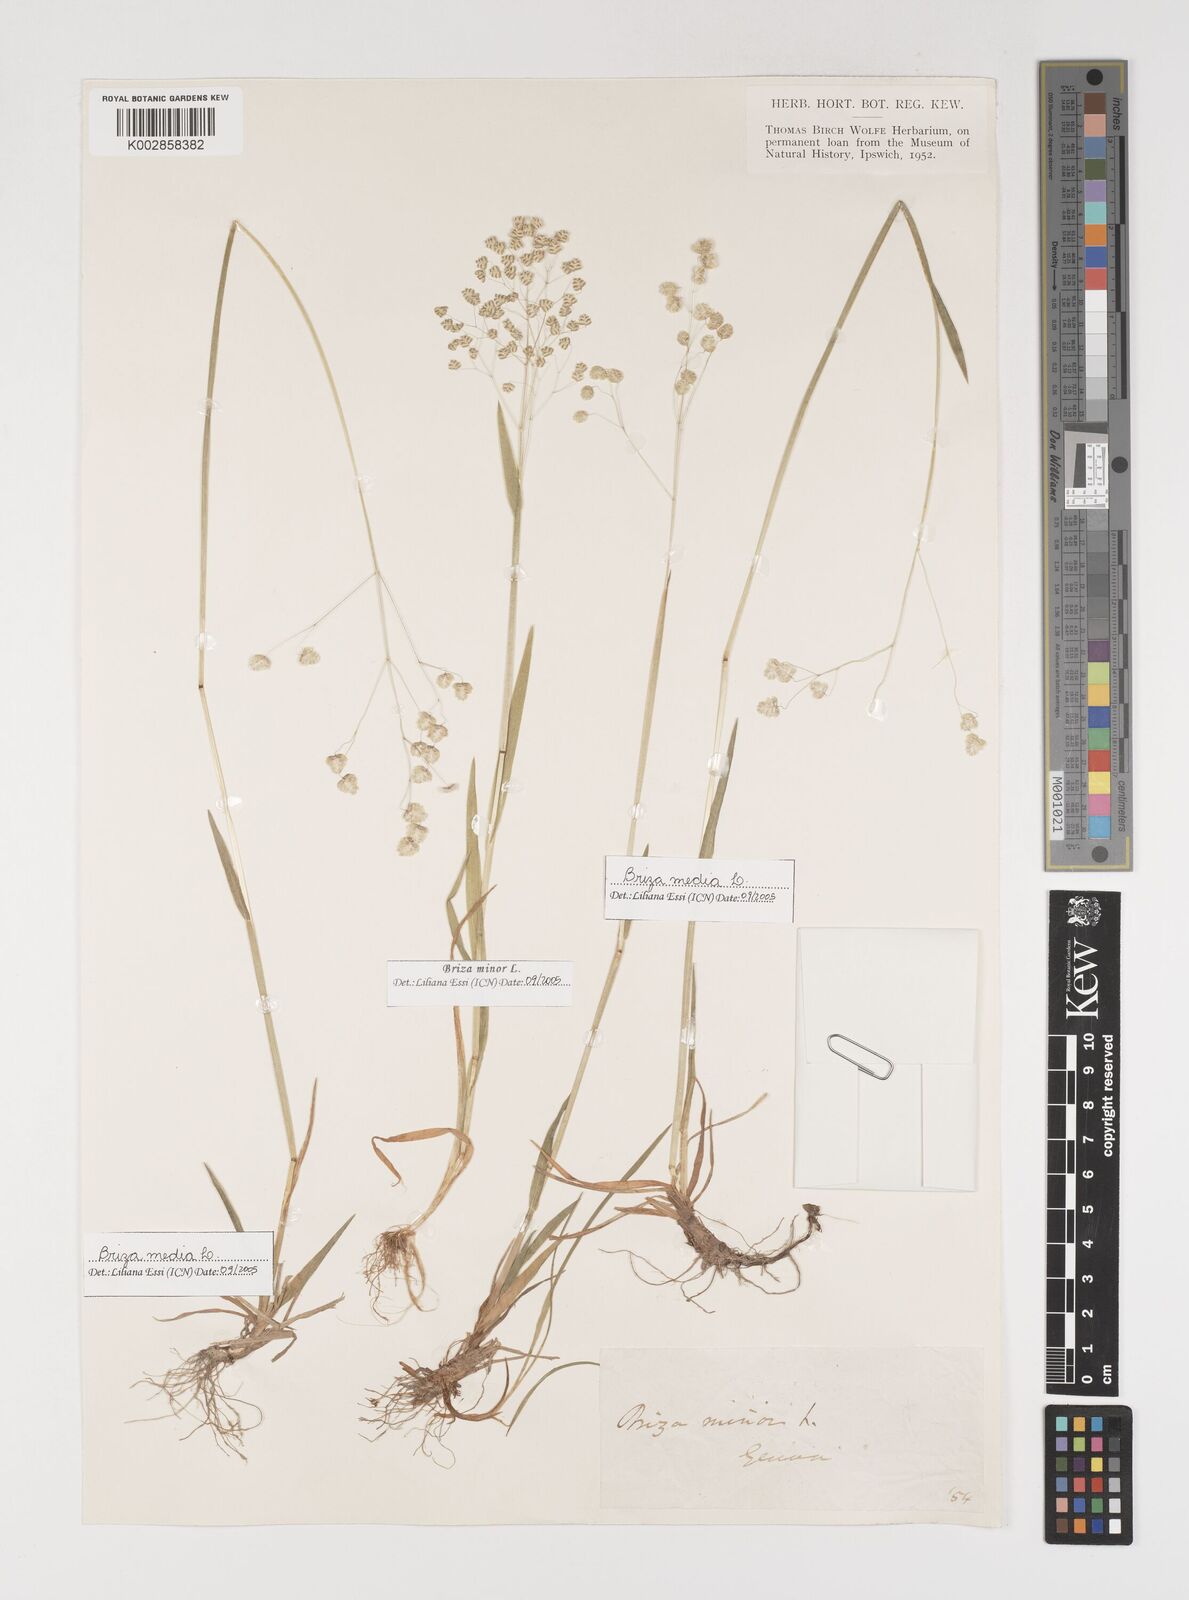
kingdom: Plantae
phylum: Tracheophyta
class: Liliopsida
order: Poales
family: Poaceae
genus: Briza
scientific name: Briza media
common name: Quaking grass
